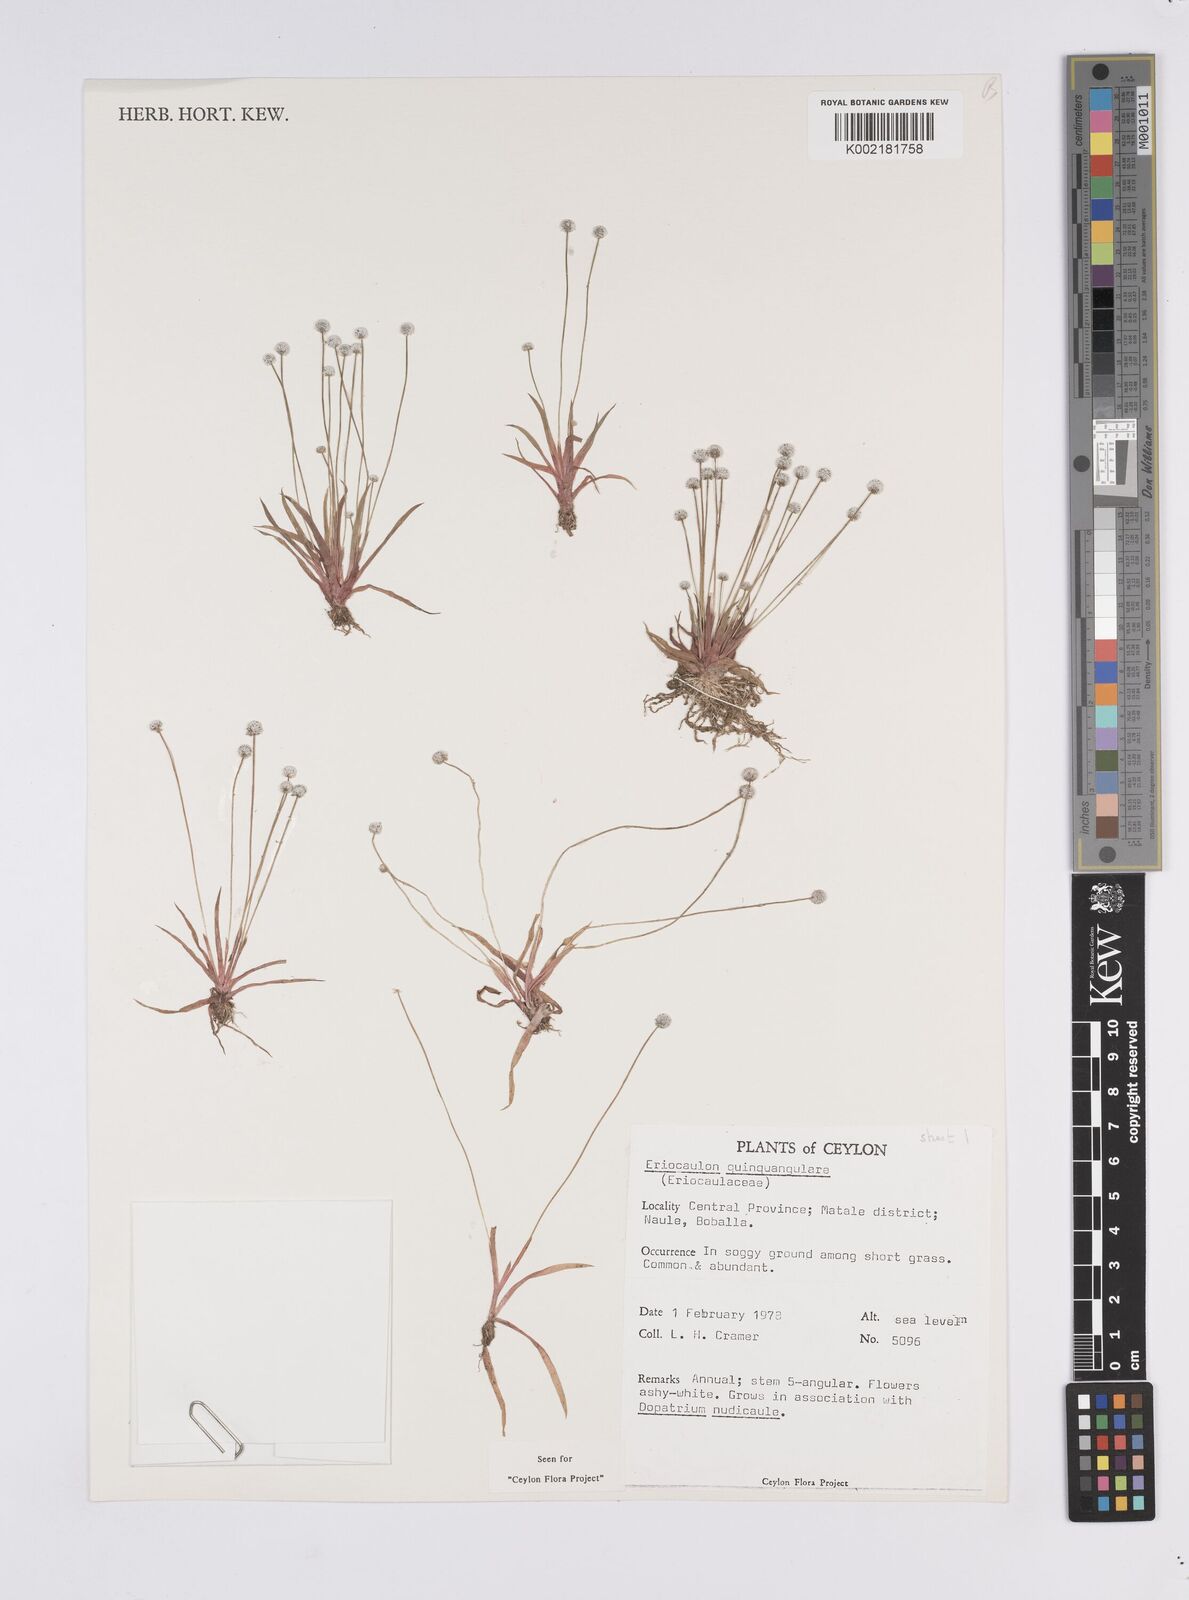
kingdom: Plantae
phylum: Tracheophyta
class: Liliopsida
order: Poales
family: Eriocaulaceae
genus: Eriocaulon
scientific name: Eriocaulon quinquangulare
